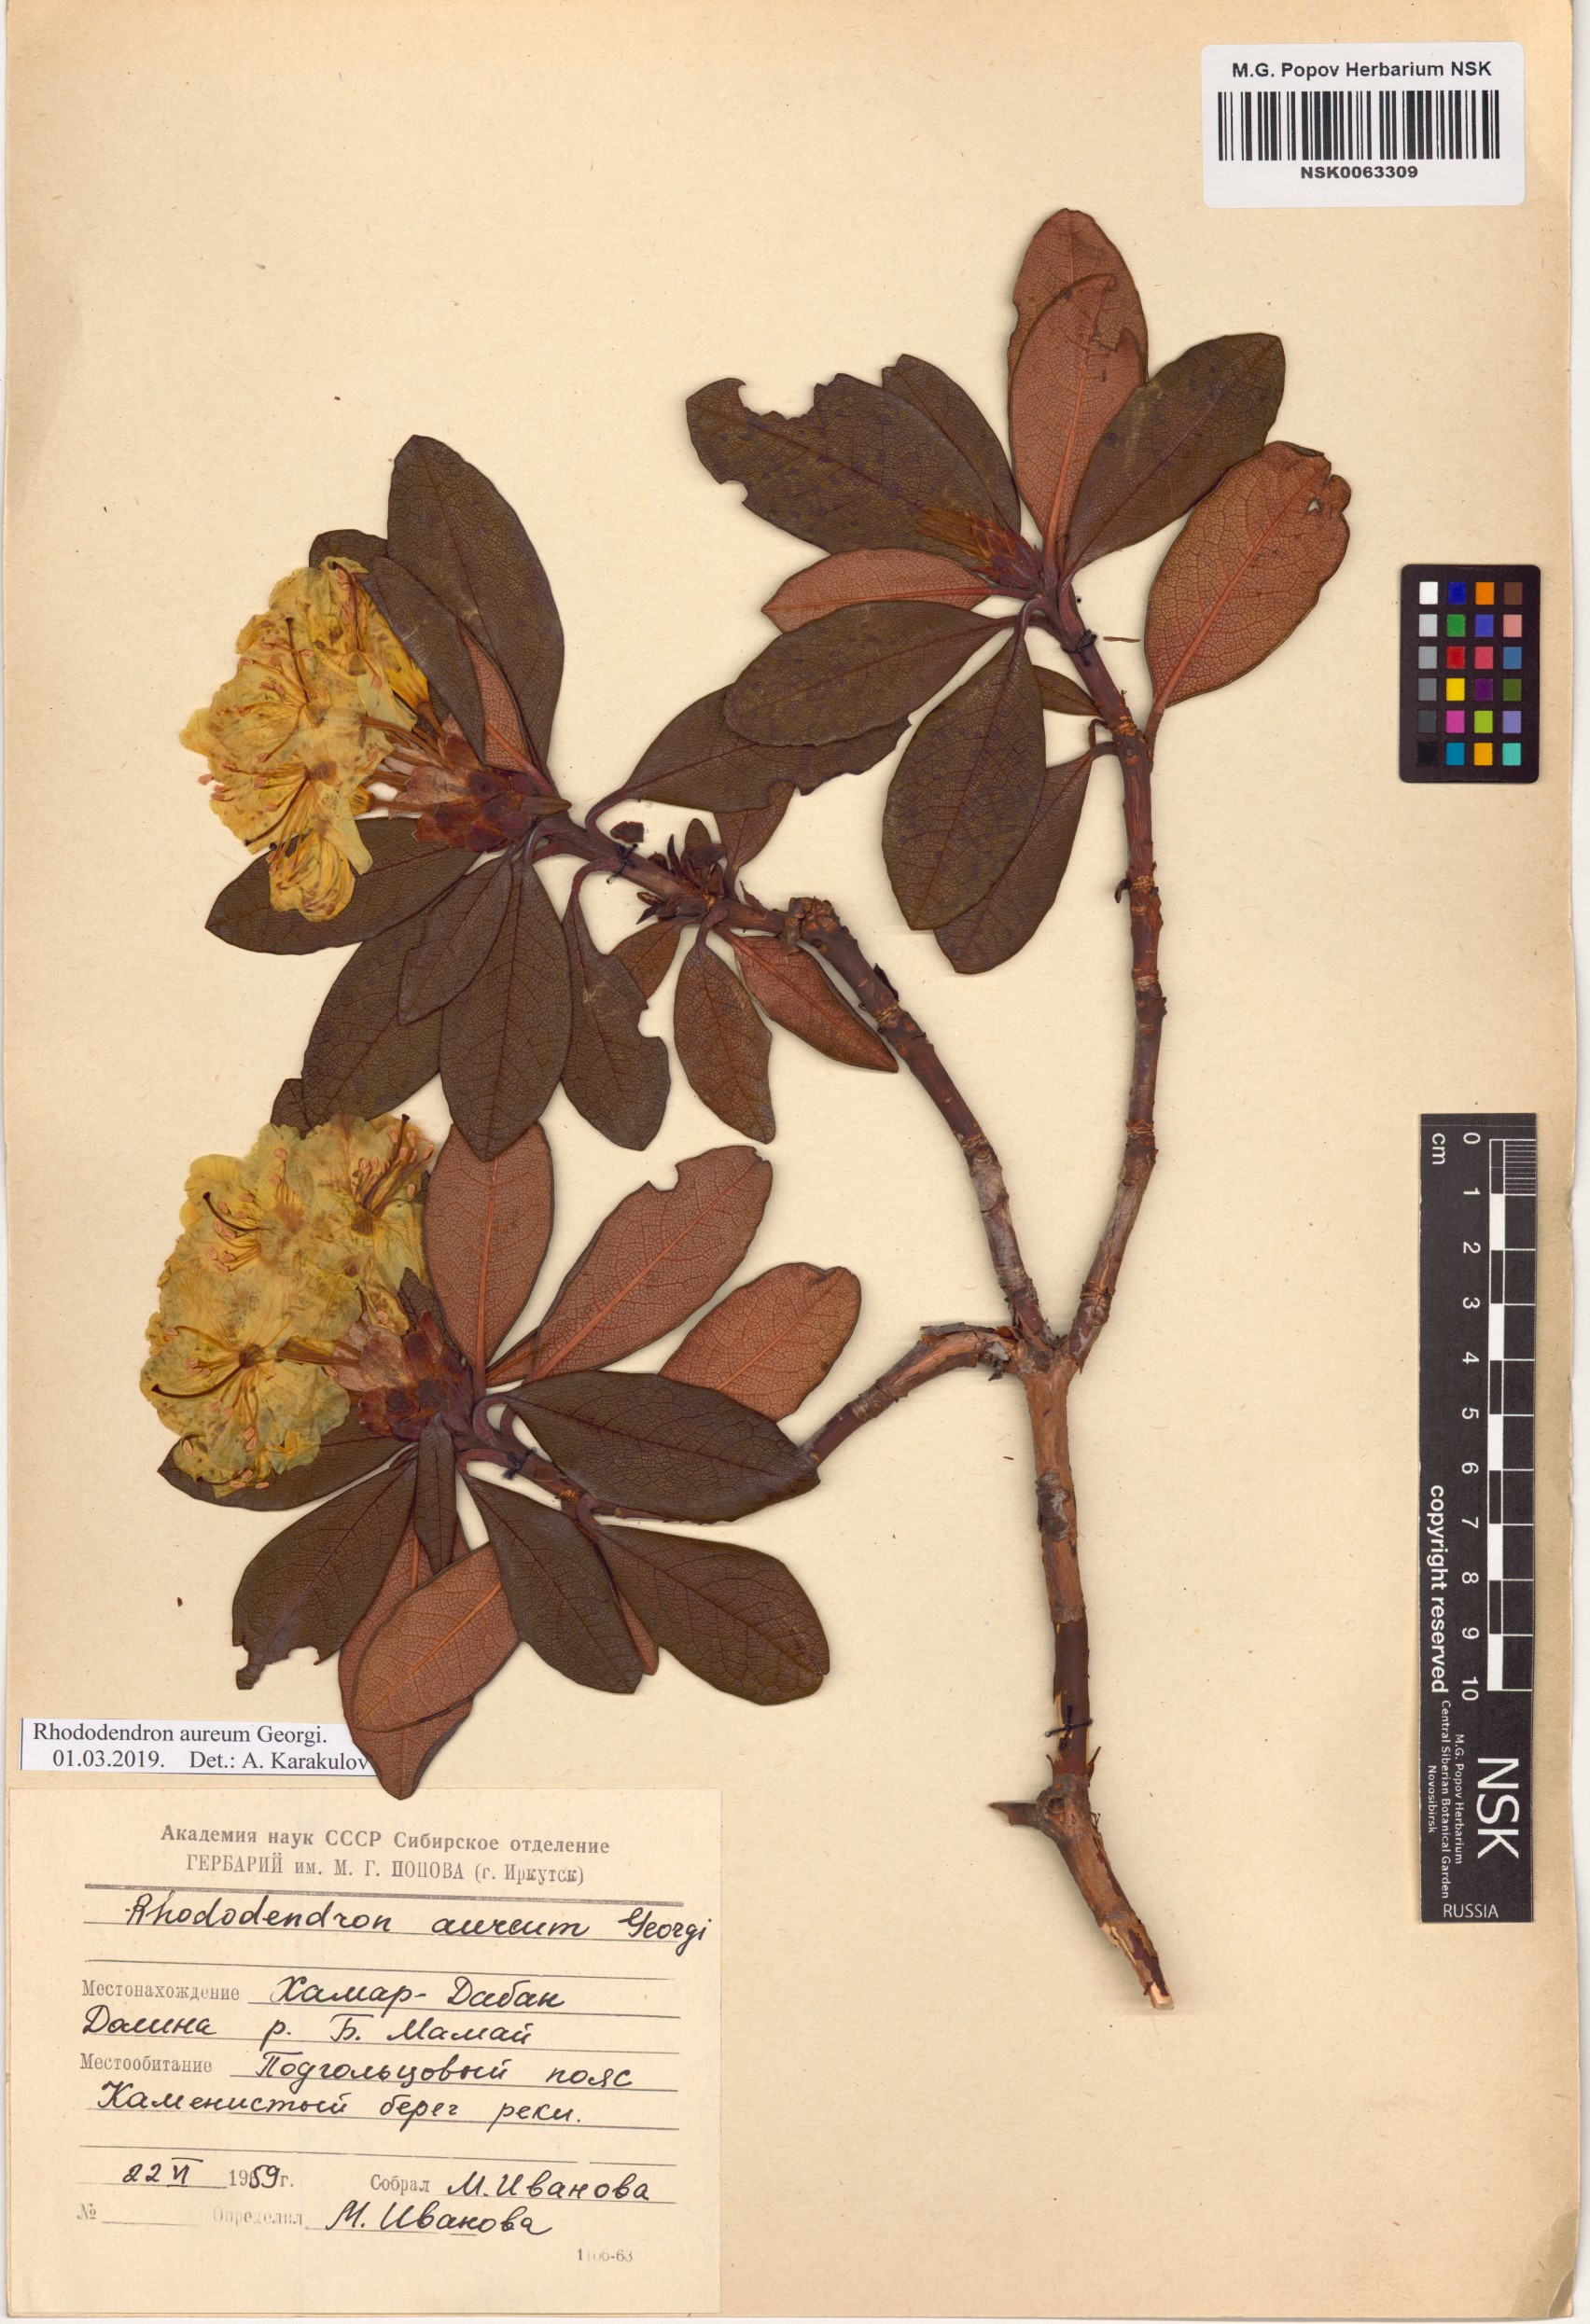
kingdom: Plantae
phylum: Tracheophyta
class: Magnoliopsida
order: Ericales
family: Ericaceae
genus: Rhododendron
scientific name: Rhododendron aureum
